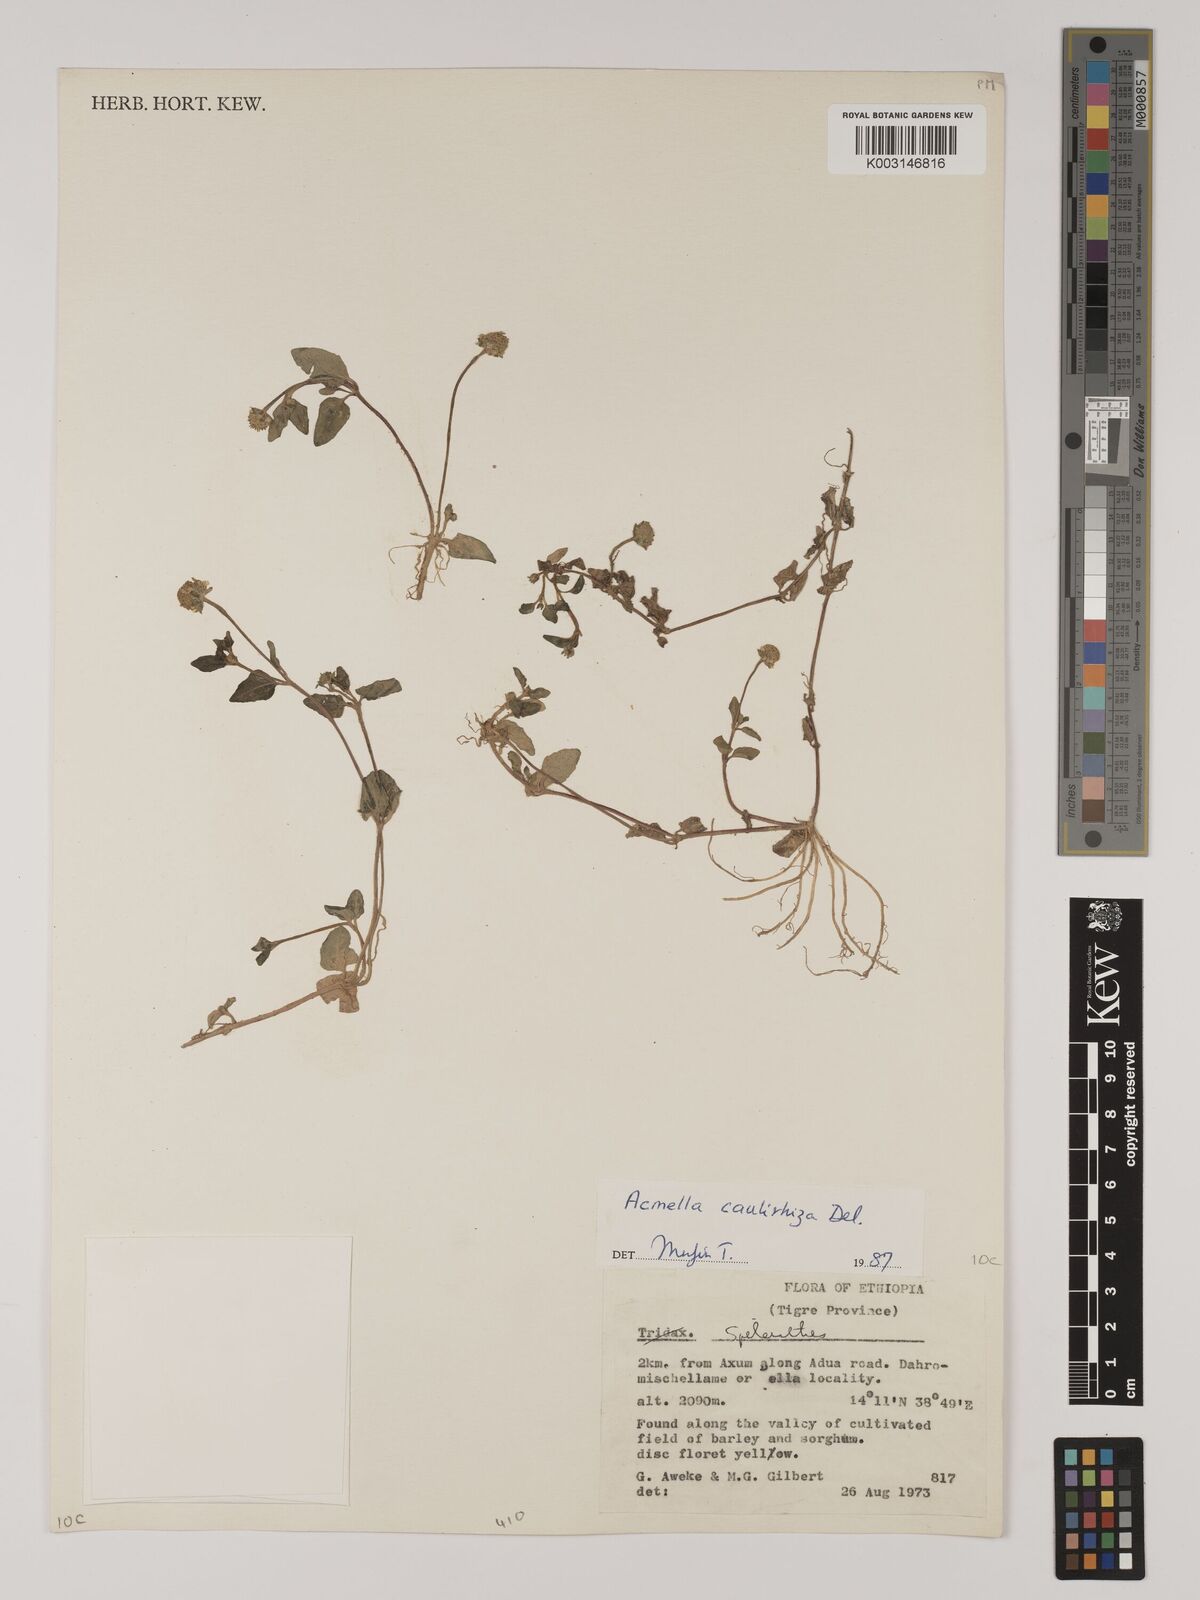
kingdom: Plantae
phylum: Tracheophyta
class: Magnoliopsida
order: Asterales
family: Asteraceae
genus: Blainvillea
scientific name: Blainvillea acmella
